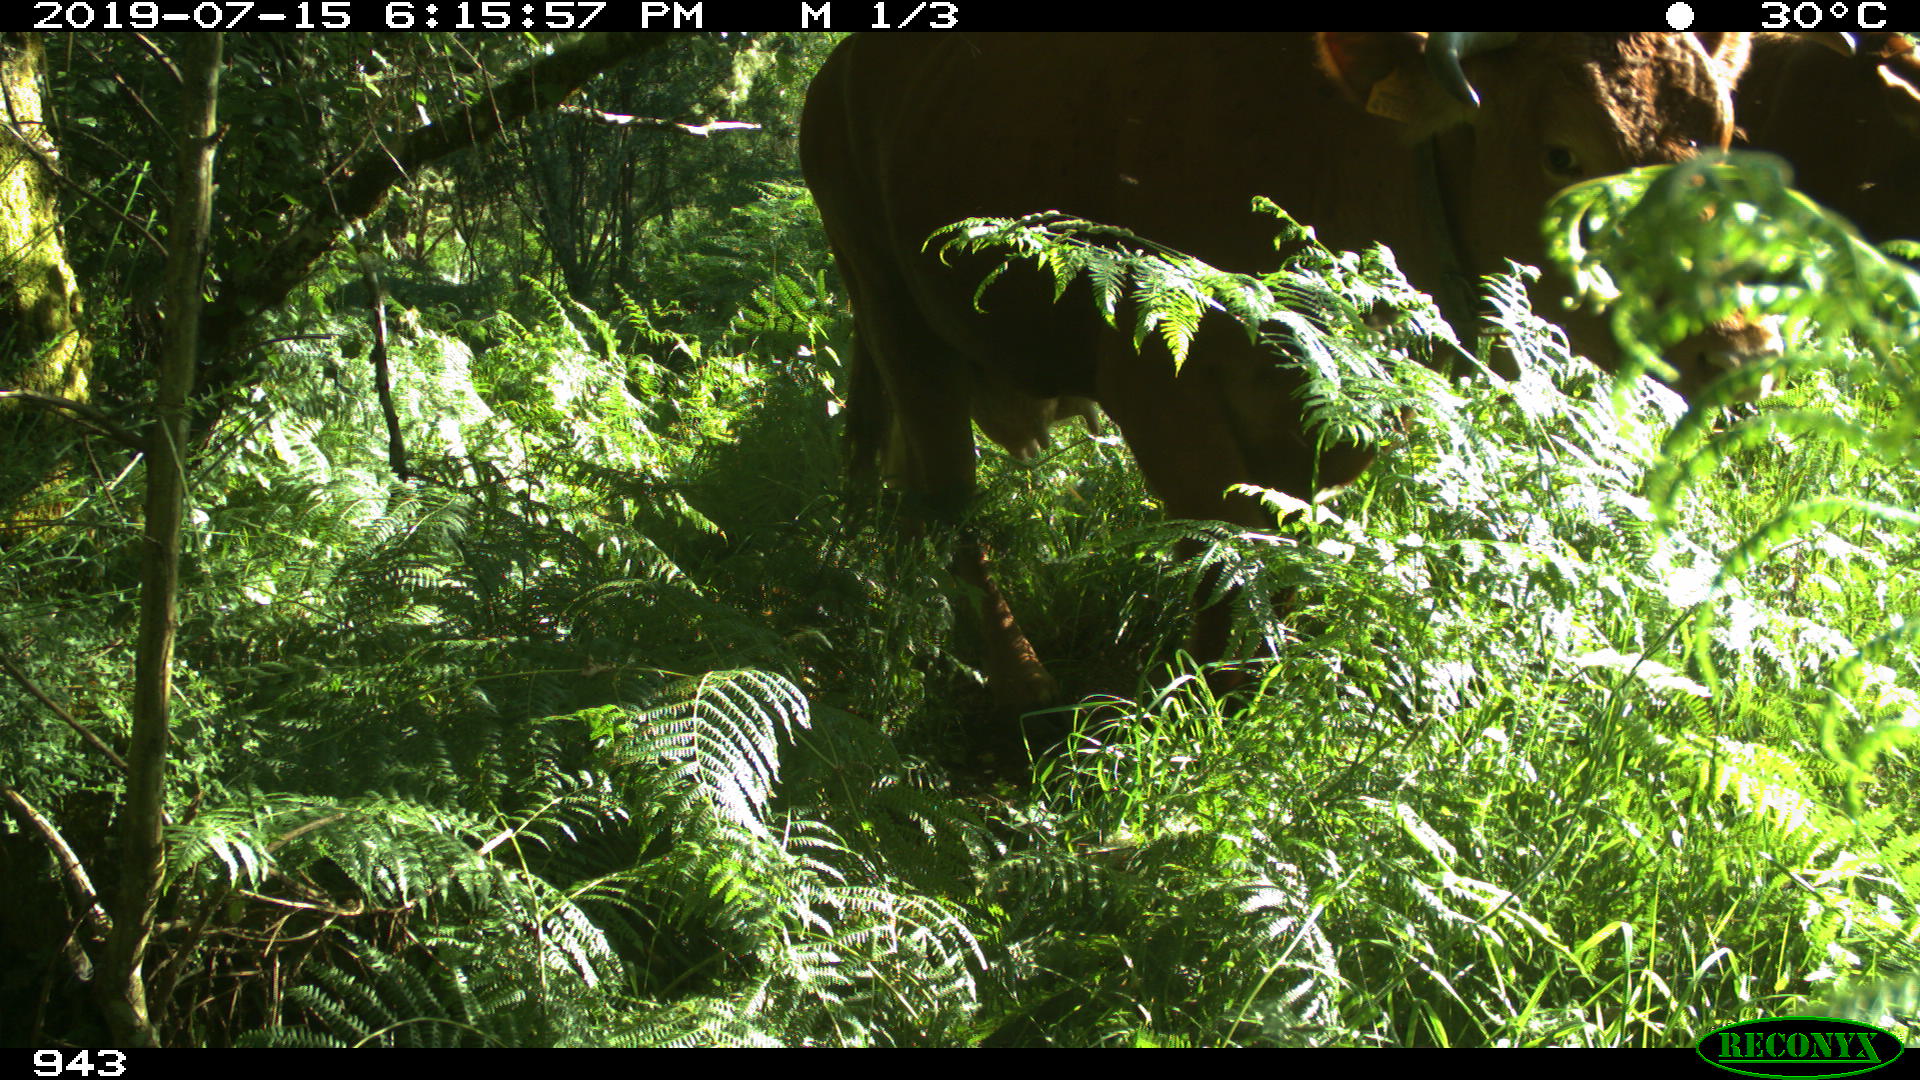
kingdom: Animalia
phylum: Chordata
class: Mammalia
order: Artiodactyla
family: Bovidae
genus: Bos
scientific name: Bos taurus
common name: Domesticated cattle
